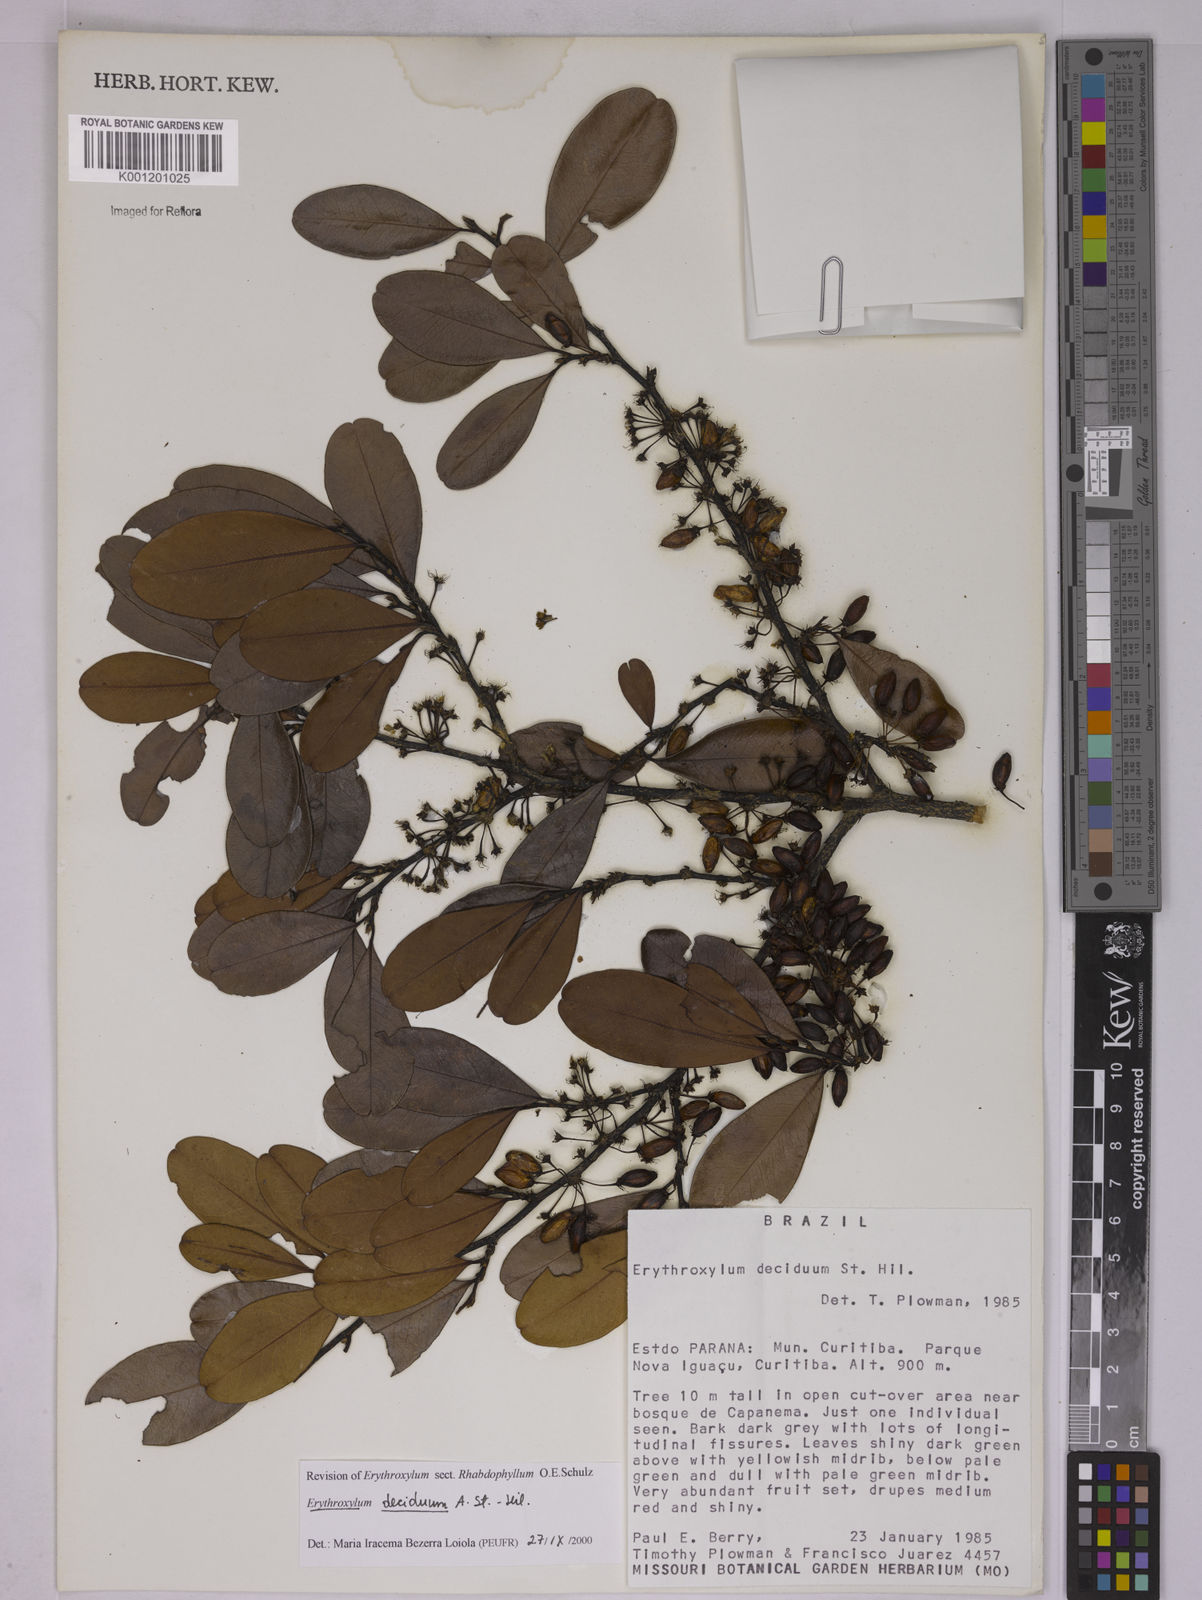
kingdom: Plantae
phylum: Tracheophyta
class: Magnoliopsida
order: Malpighiales
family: Erythroxylaceae
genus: Erythroxylum
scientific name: Erythroxylum deciduum
